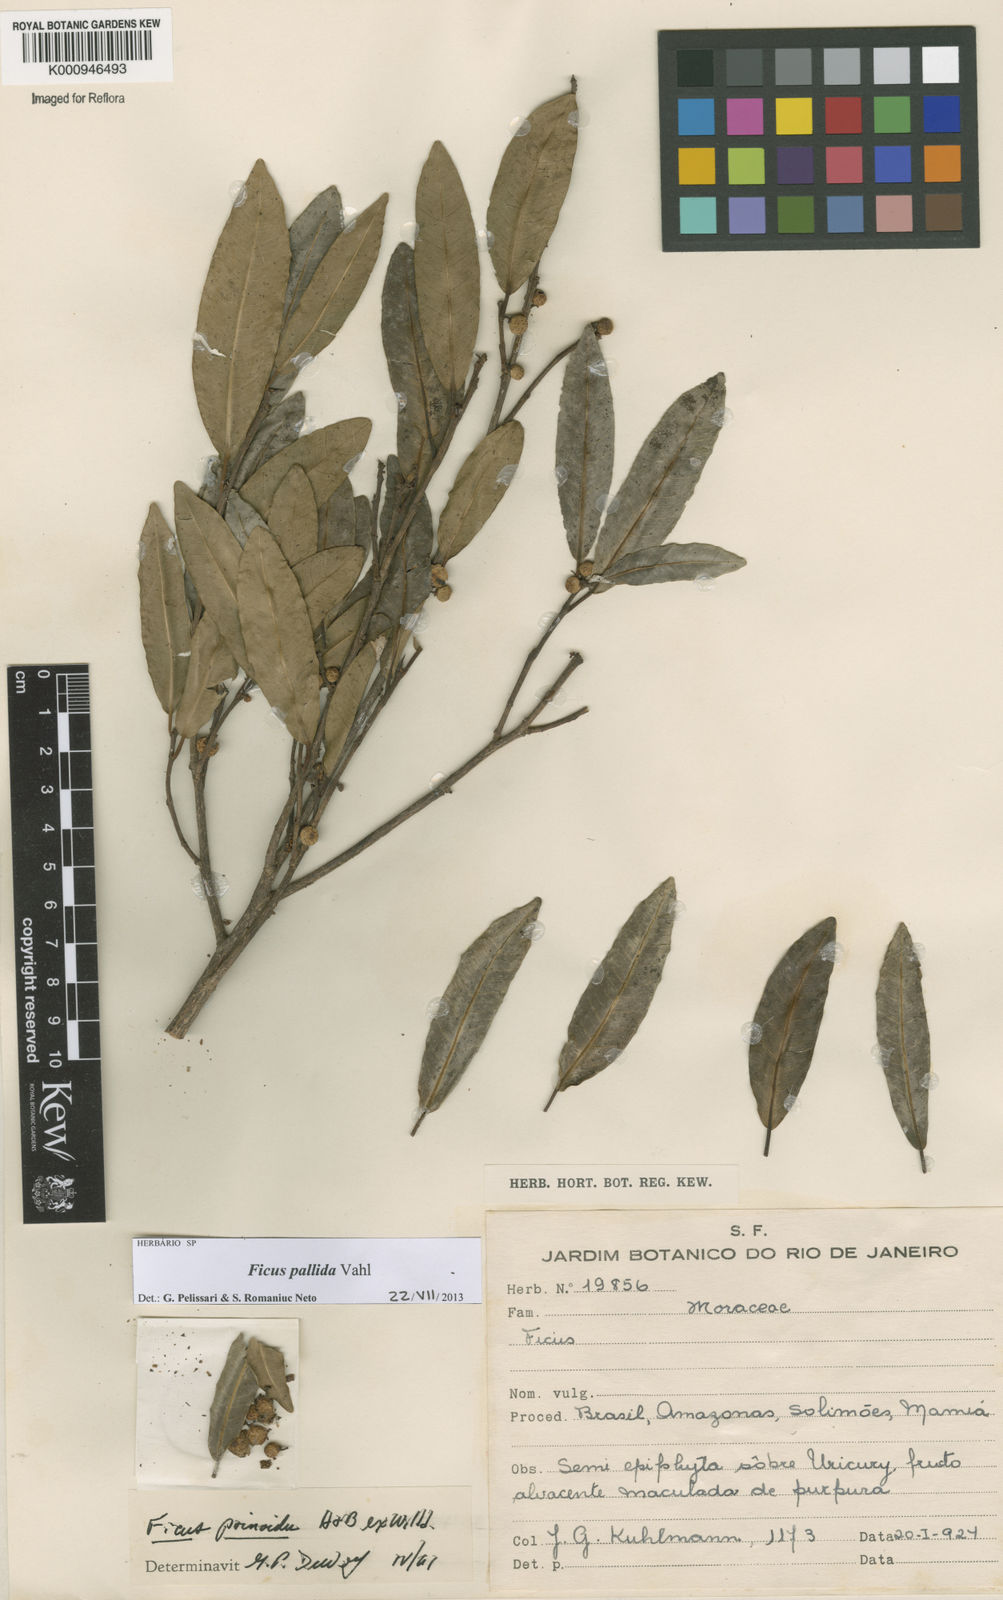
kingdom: Plantae
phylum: Tracheophyta
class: Magnoliopsida
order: Rosales
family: Moraceae
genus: Ficus
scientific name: Ficus pallida
